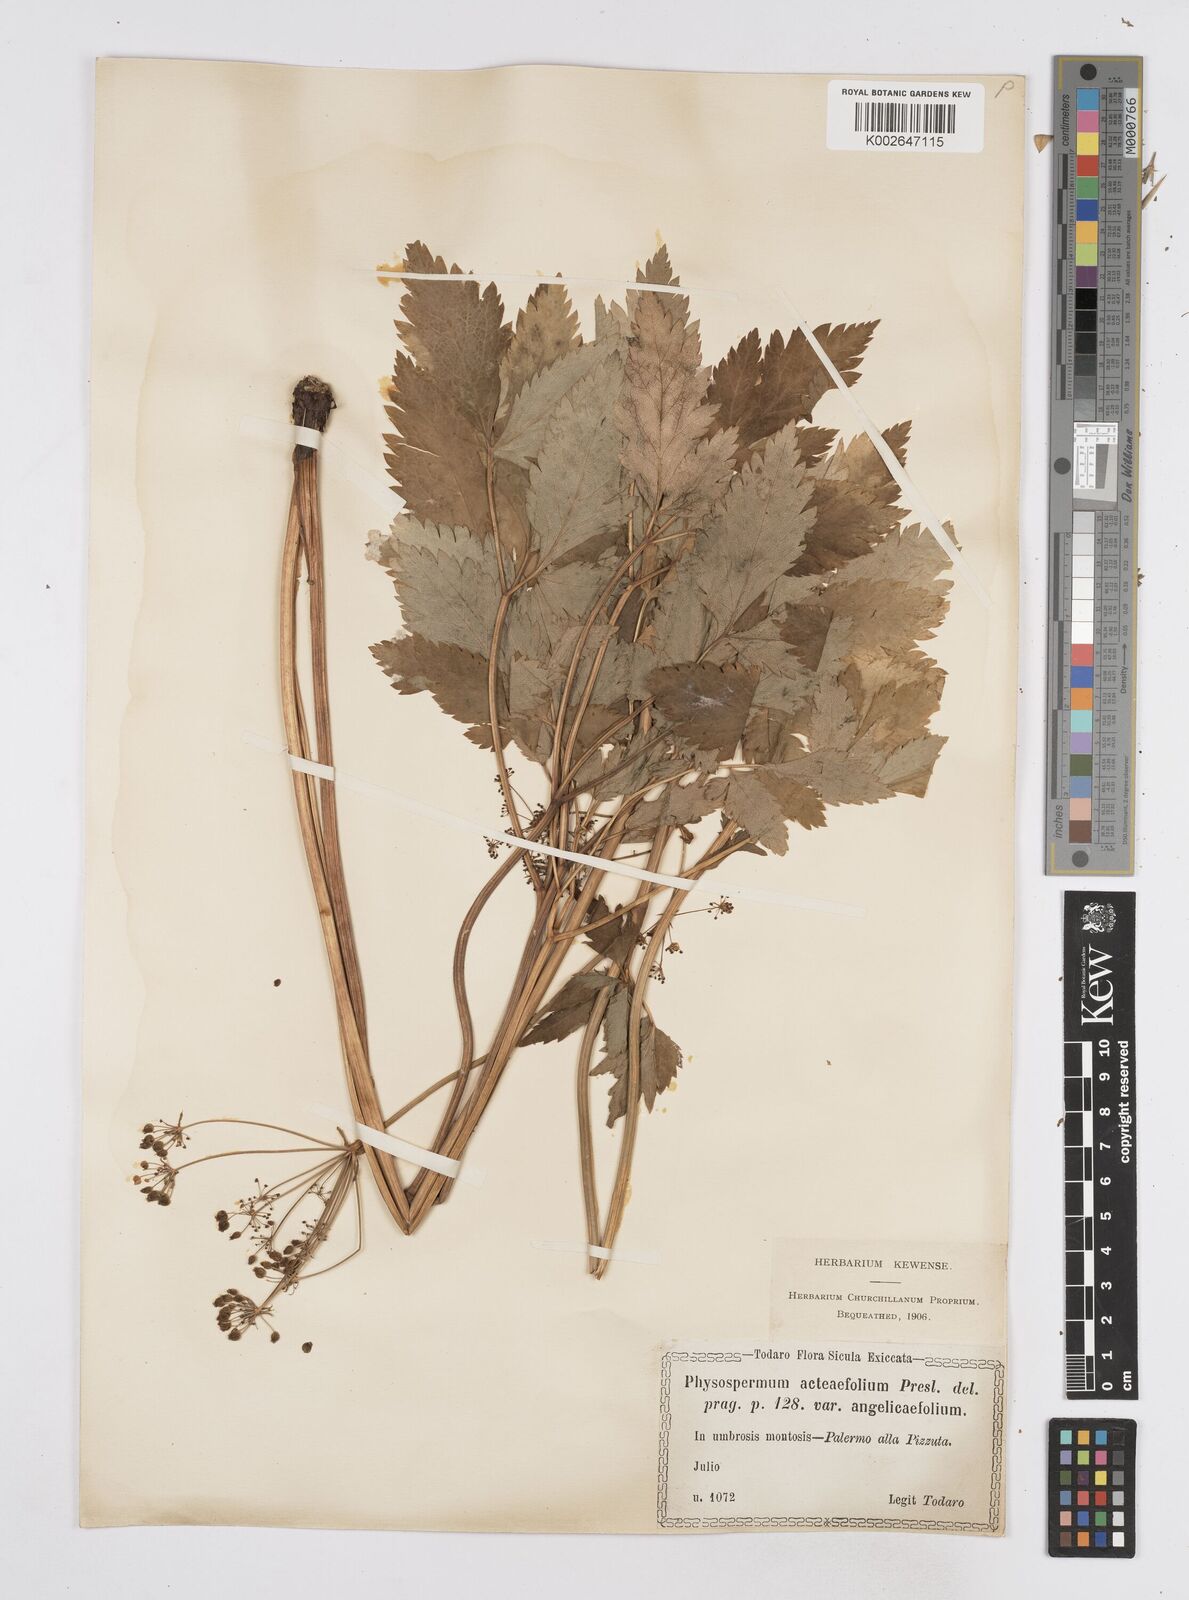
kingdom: Plantae
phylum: Tracheophyta
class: Magnoliopsida
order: Apiales
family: Apiaceae
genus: Physospermum
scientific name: Physospermum verticillatum
